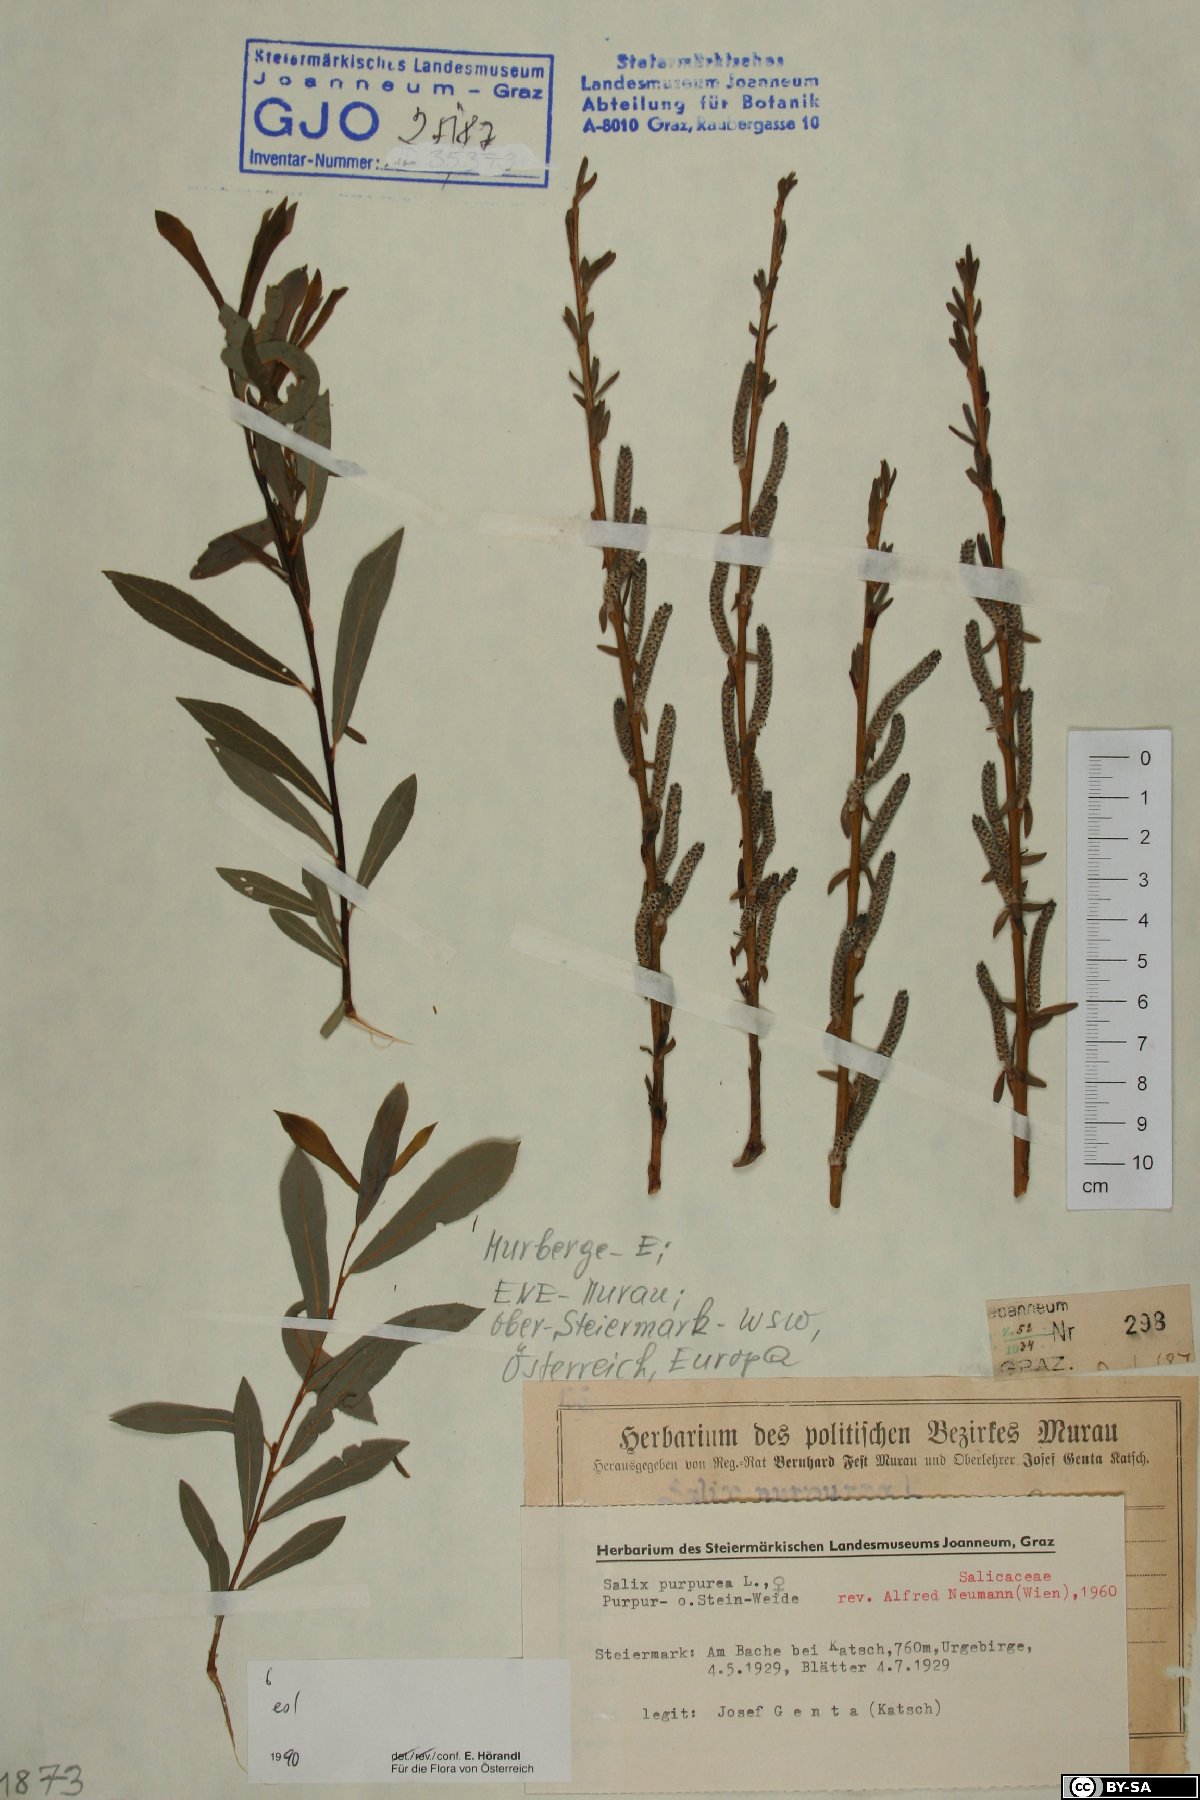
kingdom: Plantae
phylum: Tracheophyta
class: Magnoliopsida
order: Malpighiales
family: Salicaceae
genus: Salix
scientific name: Salix purpurea
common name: Purple willow
